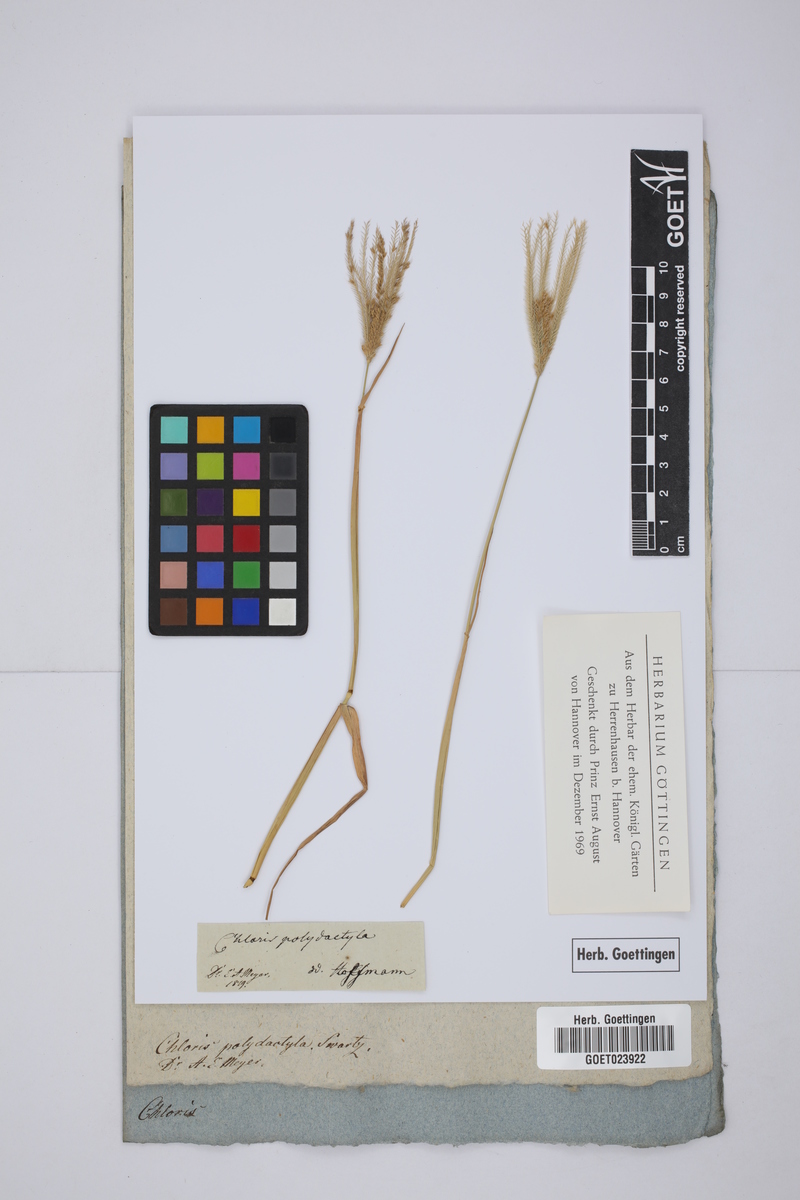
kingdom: Plantae
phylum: Tracheophyta
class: Liliopsida
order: Poales
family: Poaceae
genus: Stapfochloa
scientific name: Stapfochloa elata
